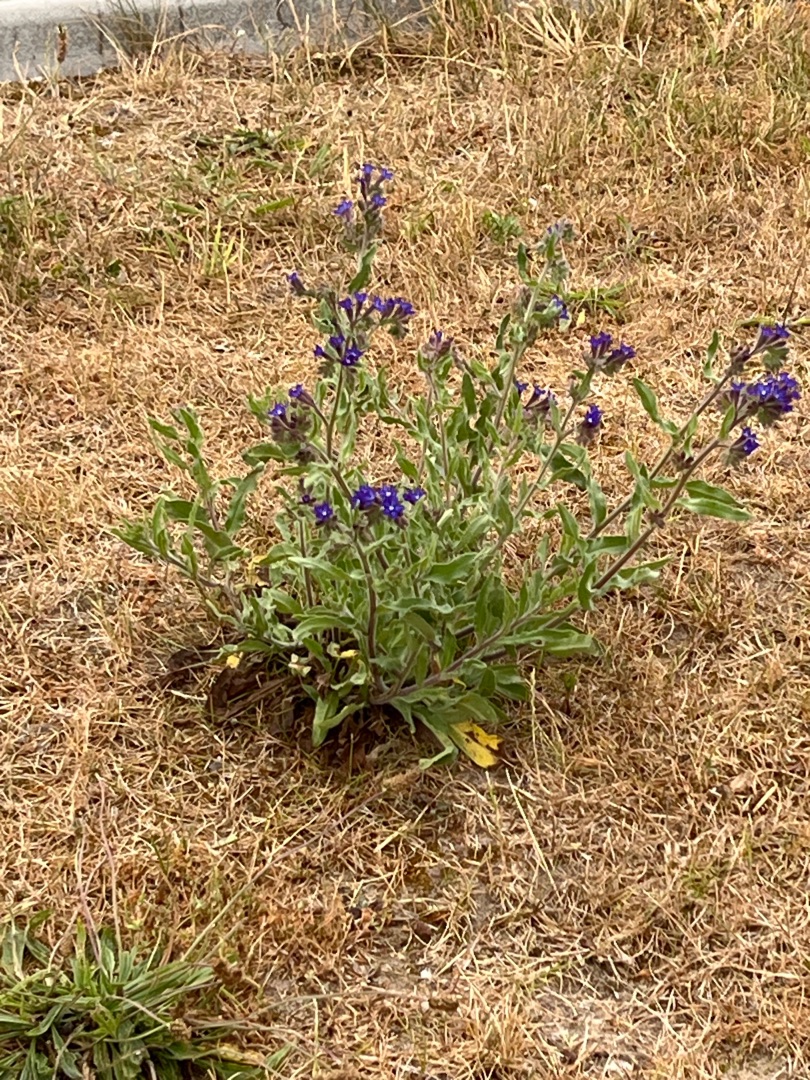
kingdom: Plantae
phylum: Tracheophyta
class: Magnoliopsida
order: Boraginales
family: Boraginaceae
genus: Anchusa
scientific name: Anchusa officinalis
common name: Læge-oksetunge
